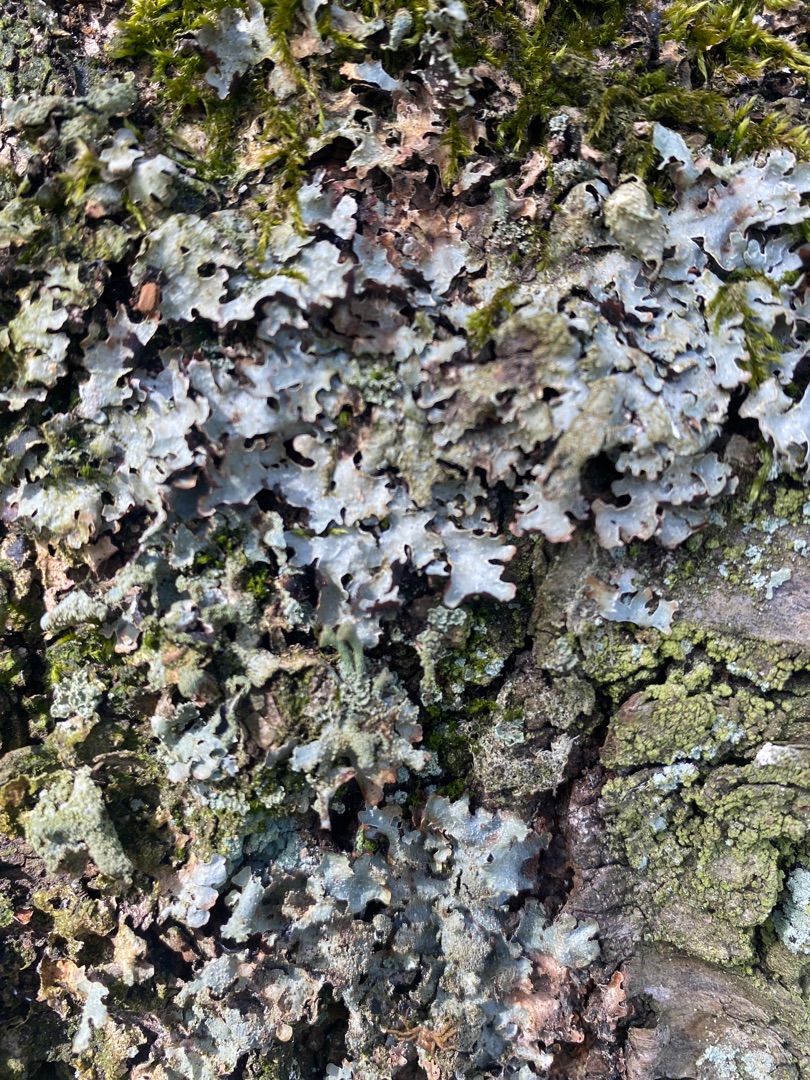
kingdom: Fungi
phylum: Ascomycota
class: Lecanoromycetes
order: Lecanorales
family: Parmeliaceae
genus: Parmelia
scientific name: Parmelia sulcata
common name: Rynket skållav
